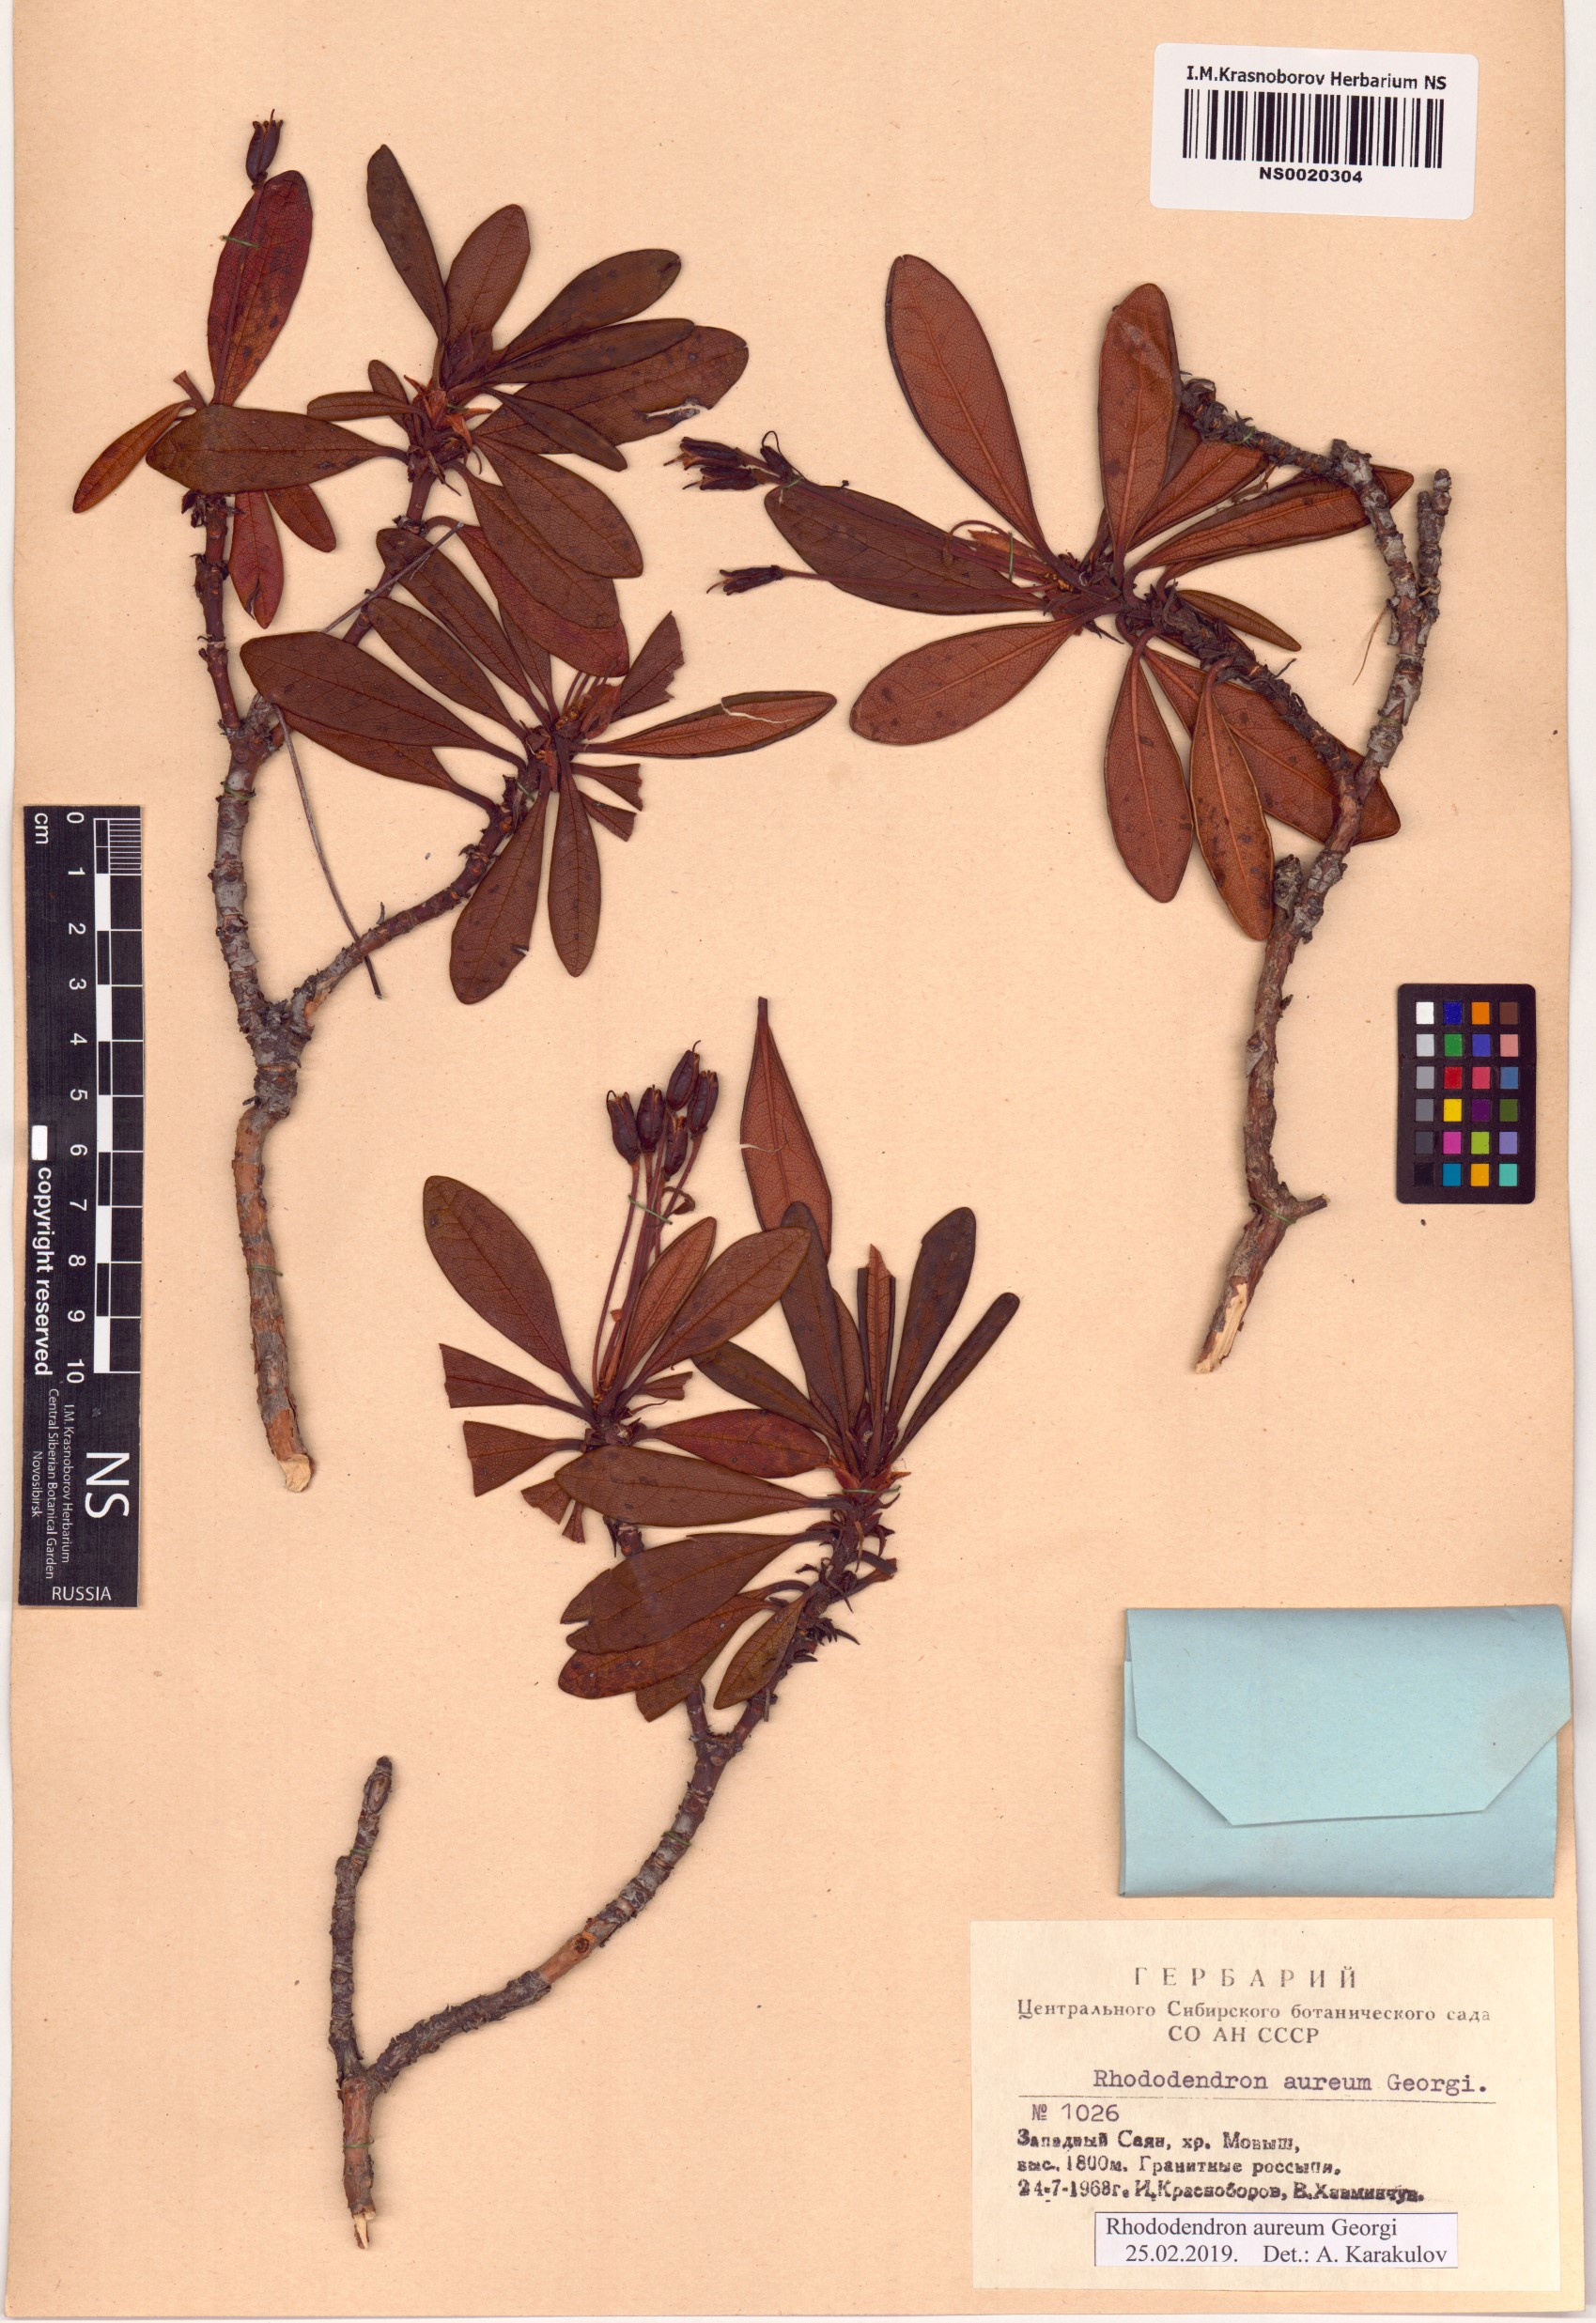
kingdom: Plantae
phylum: Tracheophyta
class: Magnoliopsida
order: Ericales
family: Ericaceae
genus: Rhododendron
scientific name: Rhododendron aureum
